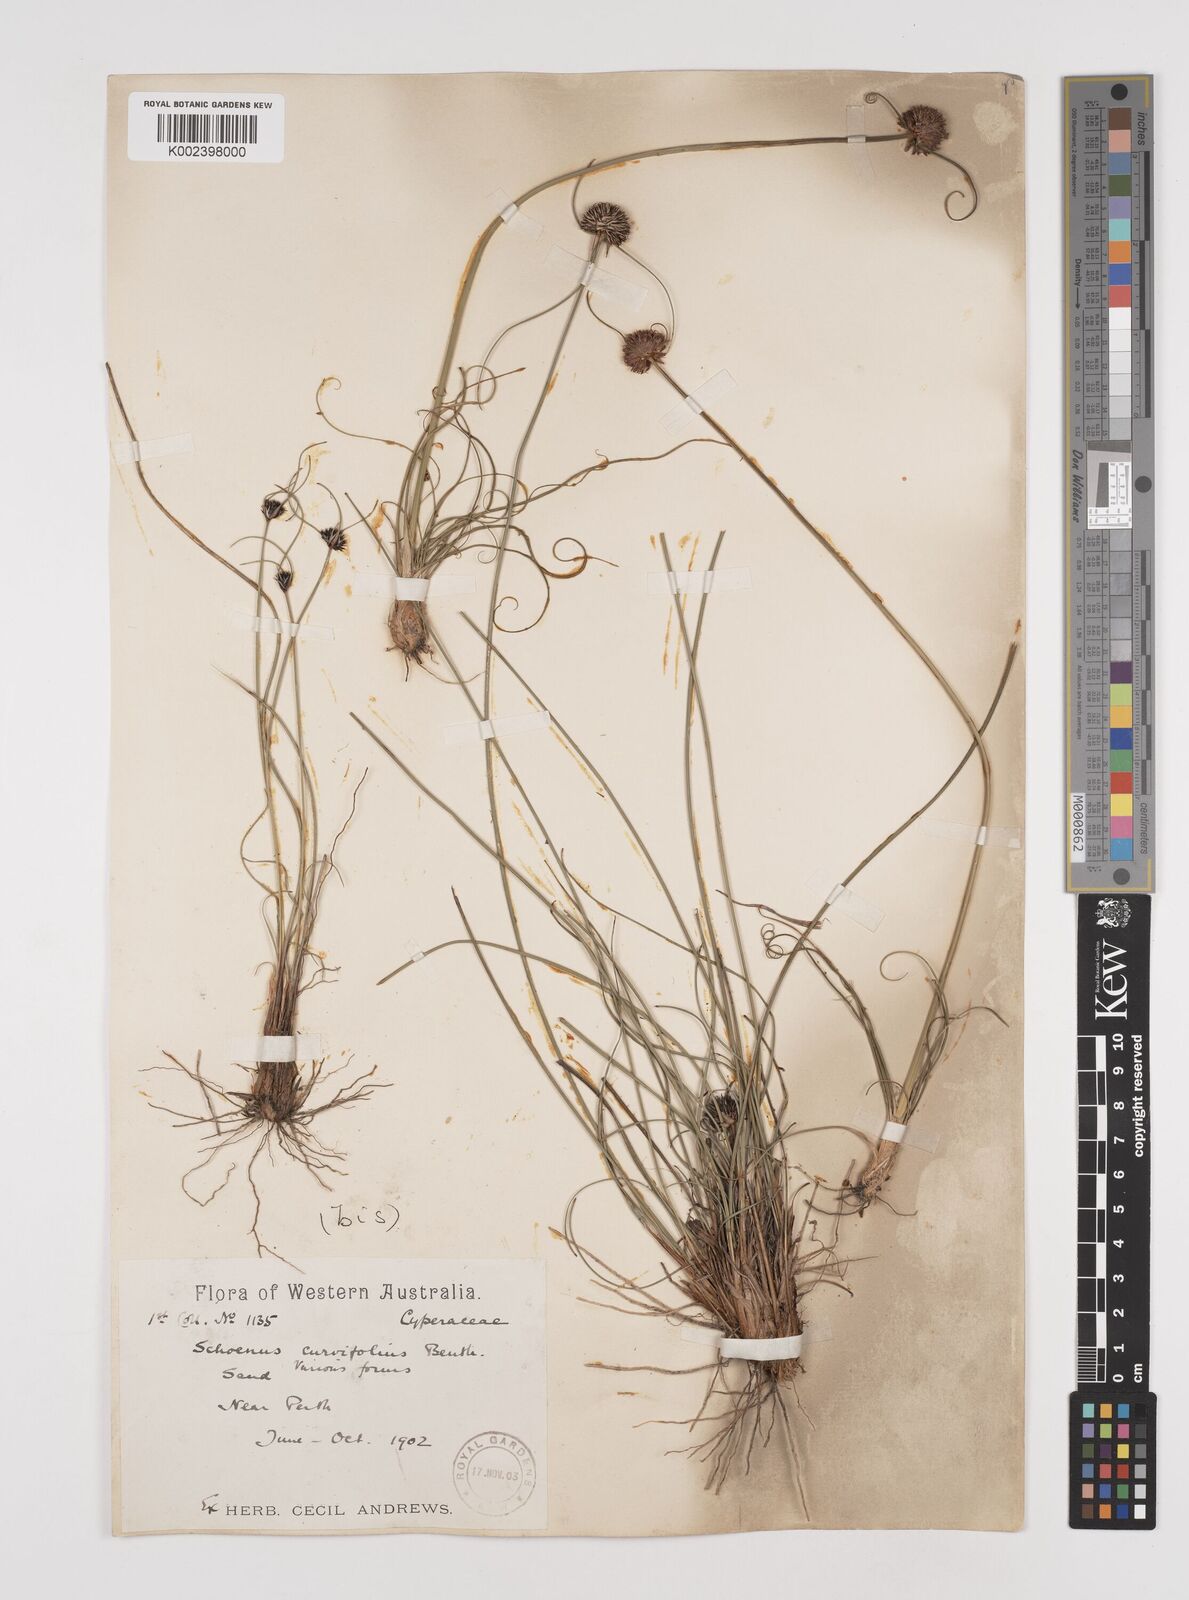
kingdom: Plantae
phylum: Tracheophyta
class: Liliopsida
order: Poales
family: Cyperaceae
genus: Schoenus
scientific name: Schoenus curvifolius
